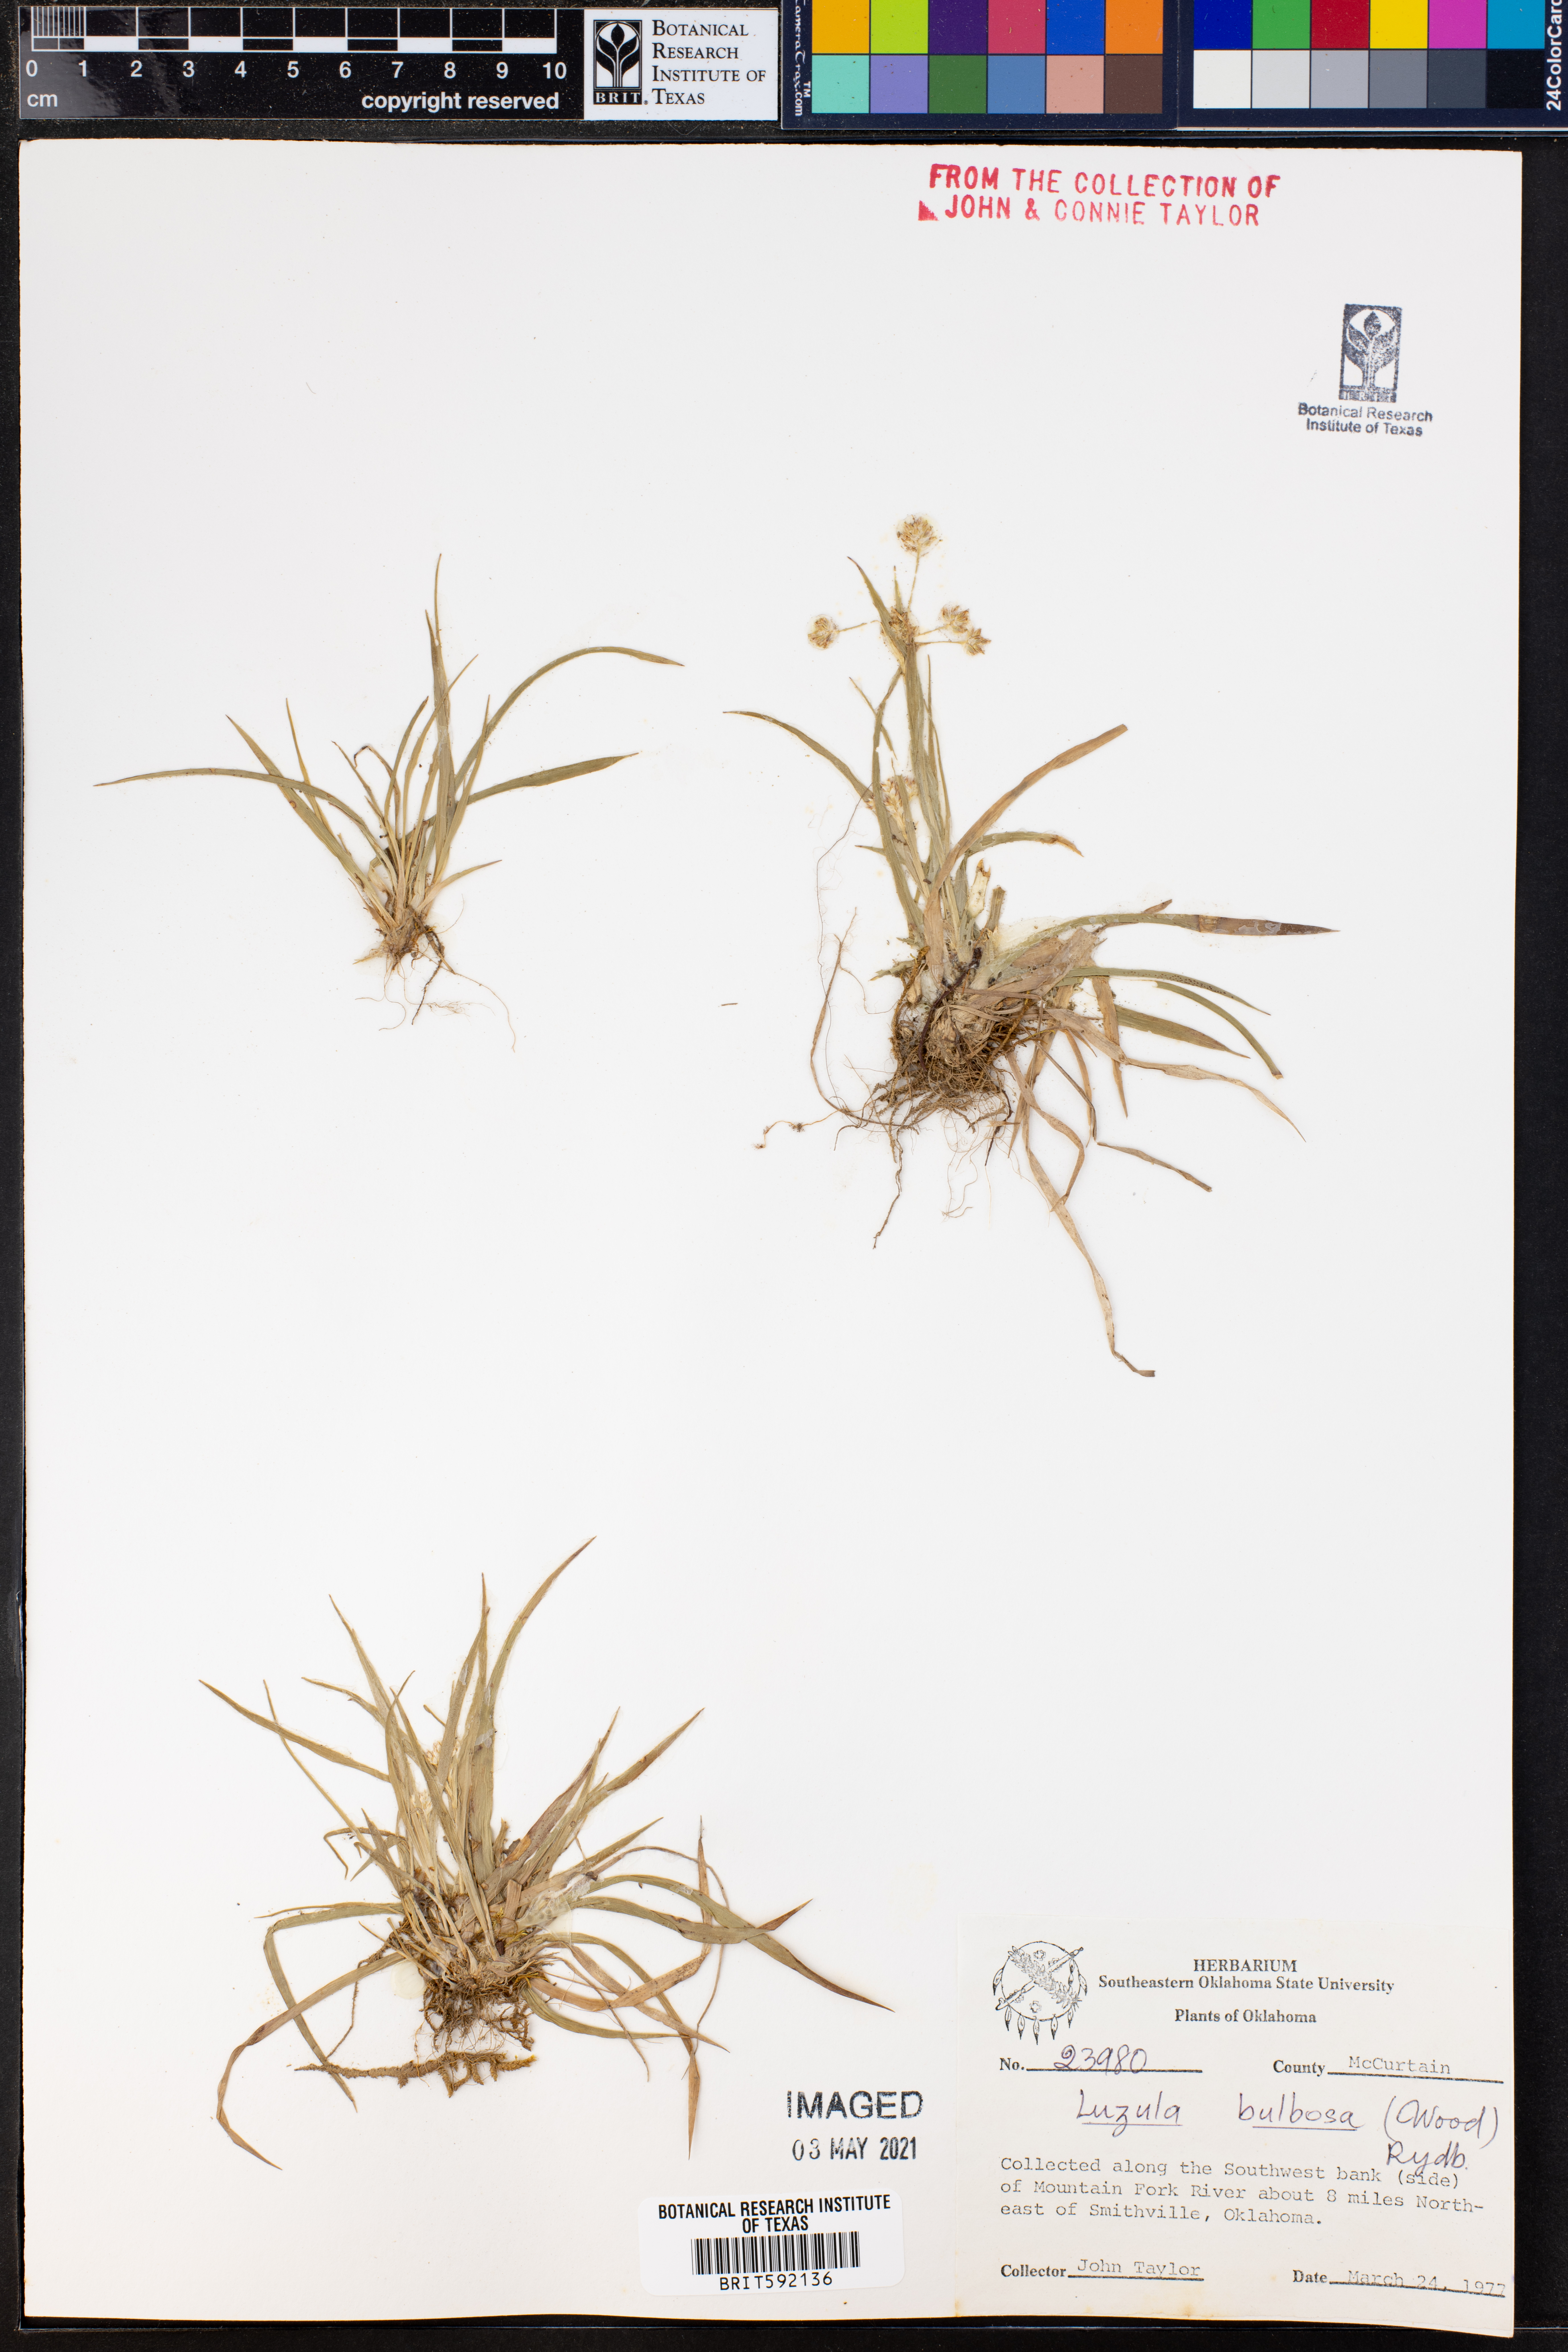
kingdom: Plantae
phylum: Tracheophyta
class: Liliopsida
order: Poales
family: Juncaceae
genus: Luzula
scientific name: Luzula bulbosa
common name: Bulbous woodrush
